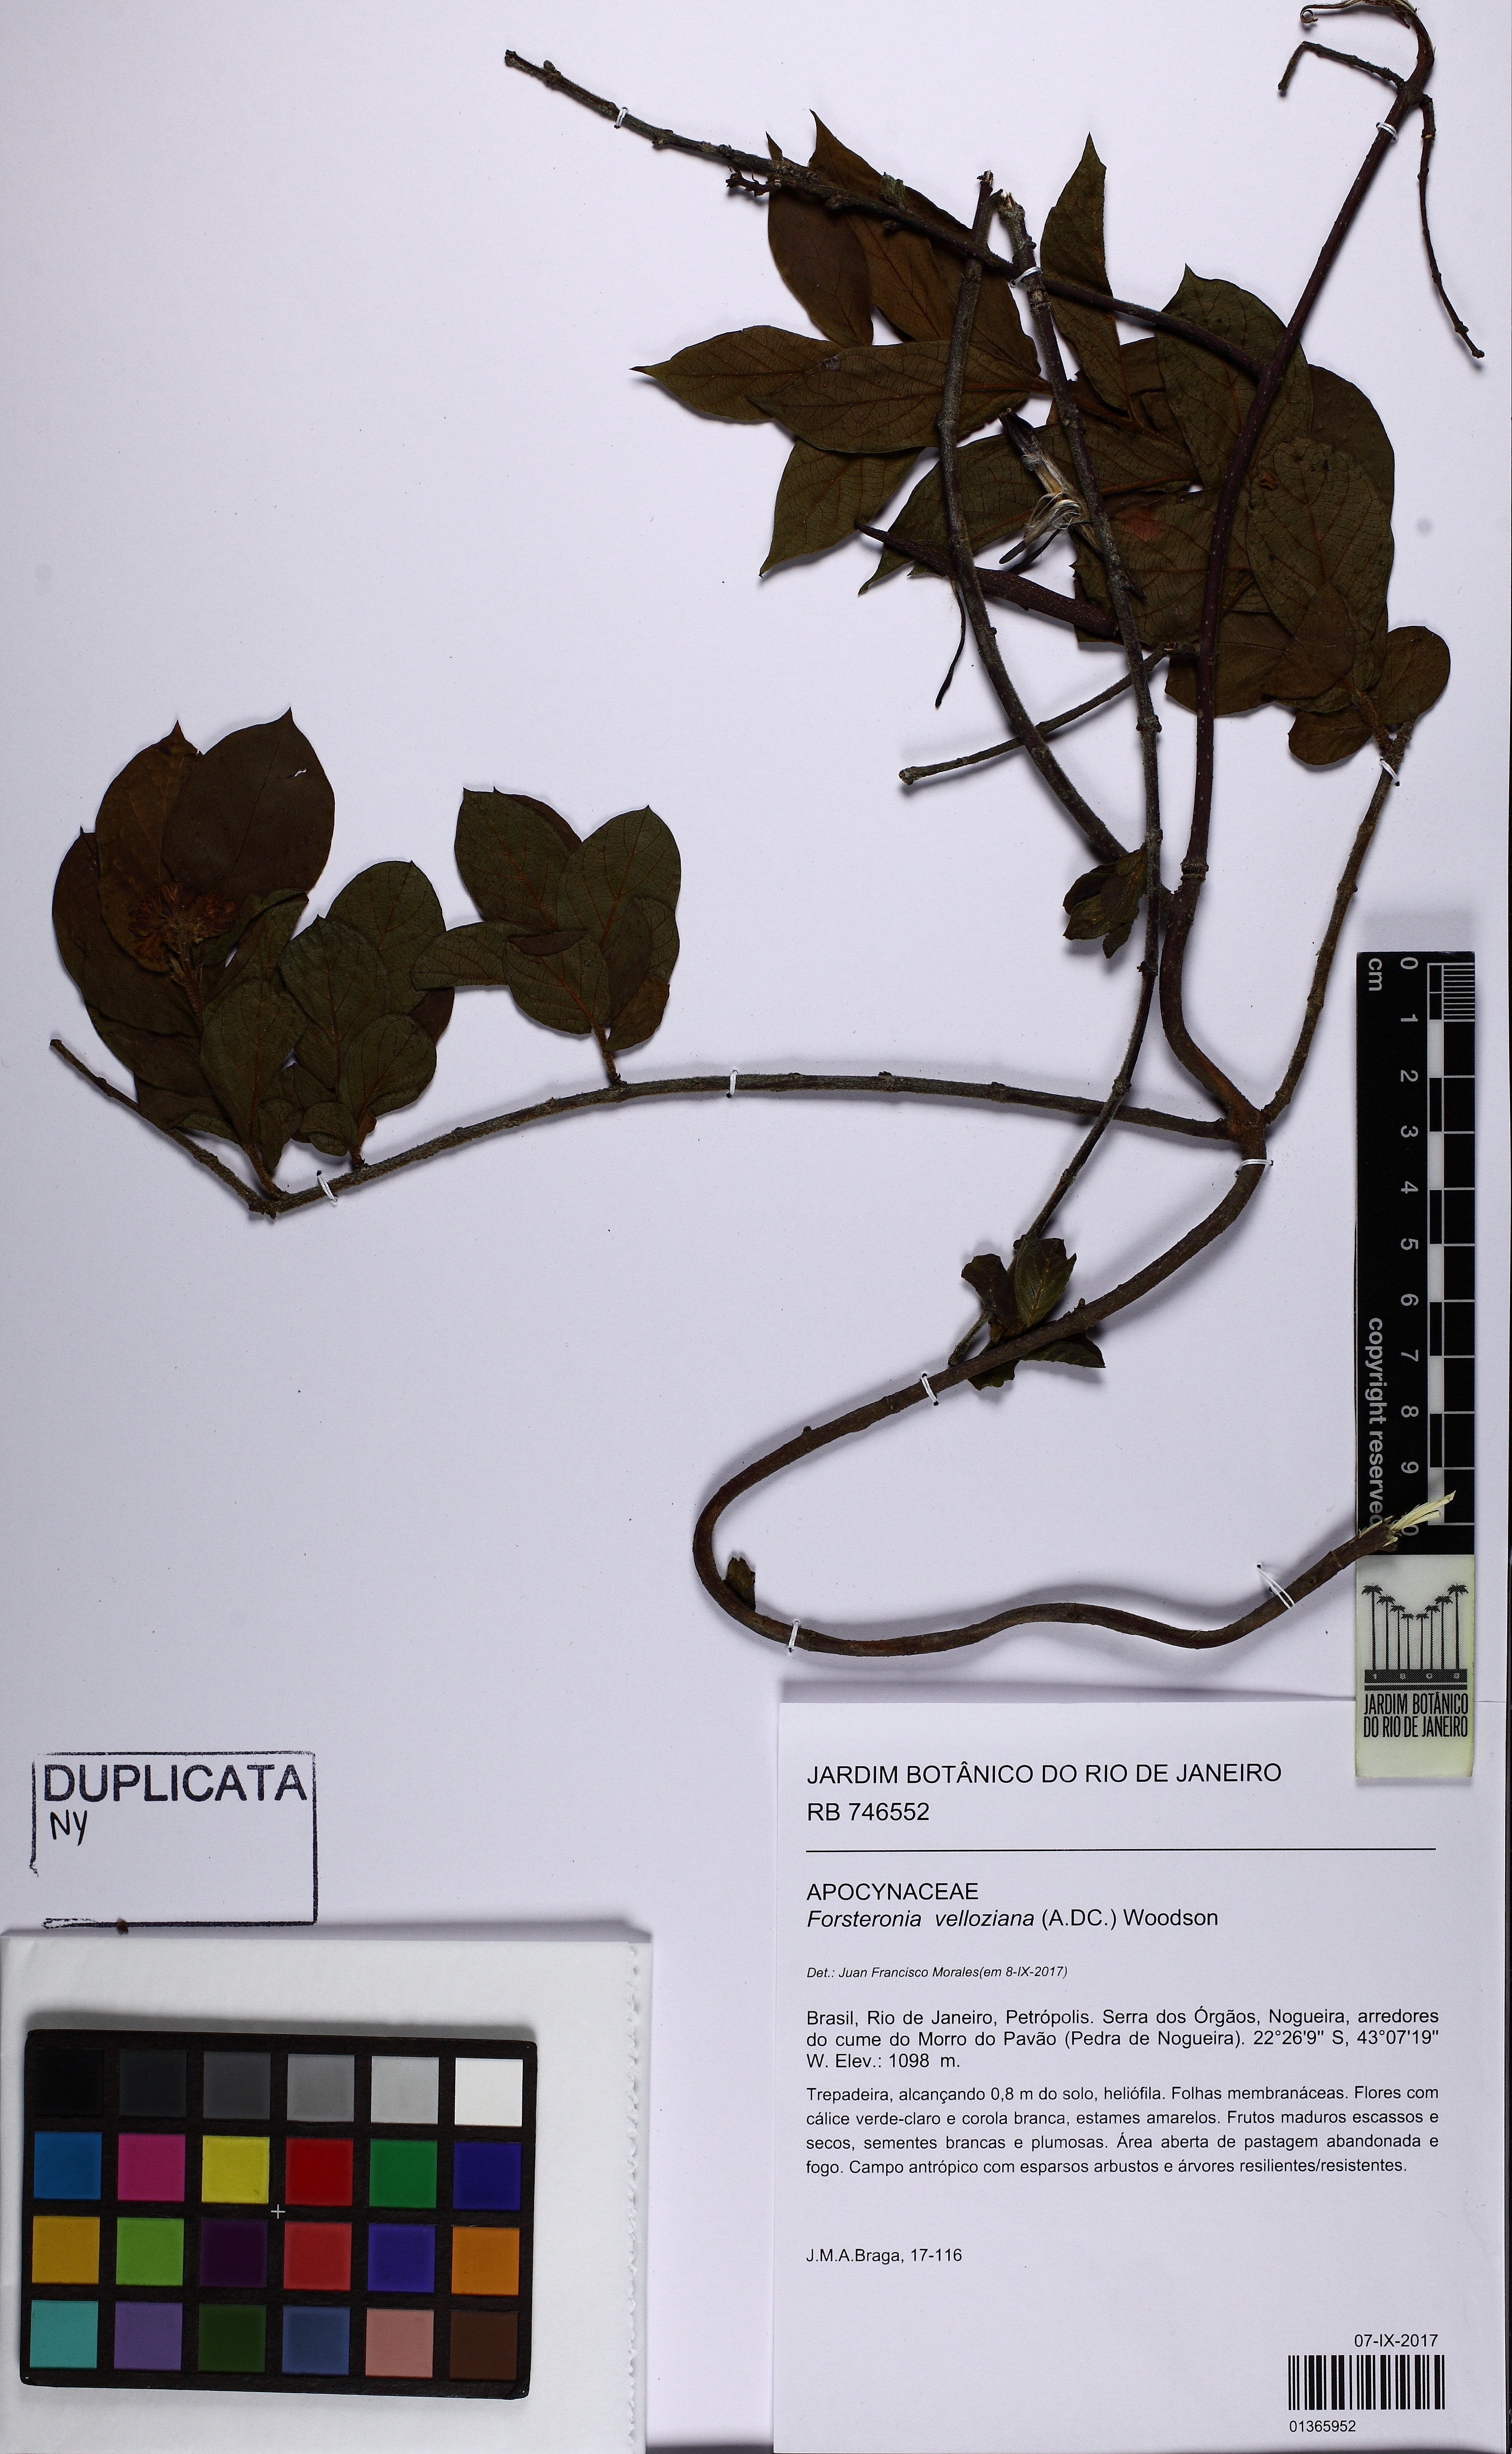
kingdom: Plantae
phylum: Tracheophyta
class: Magnoliopsida
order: Gentianales
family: Apocynaceae
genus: Forsteronia
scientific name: Forsteronia velloziana
